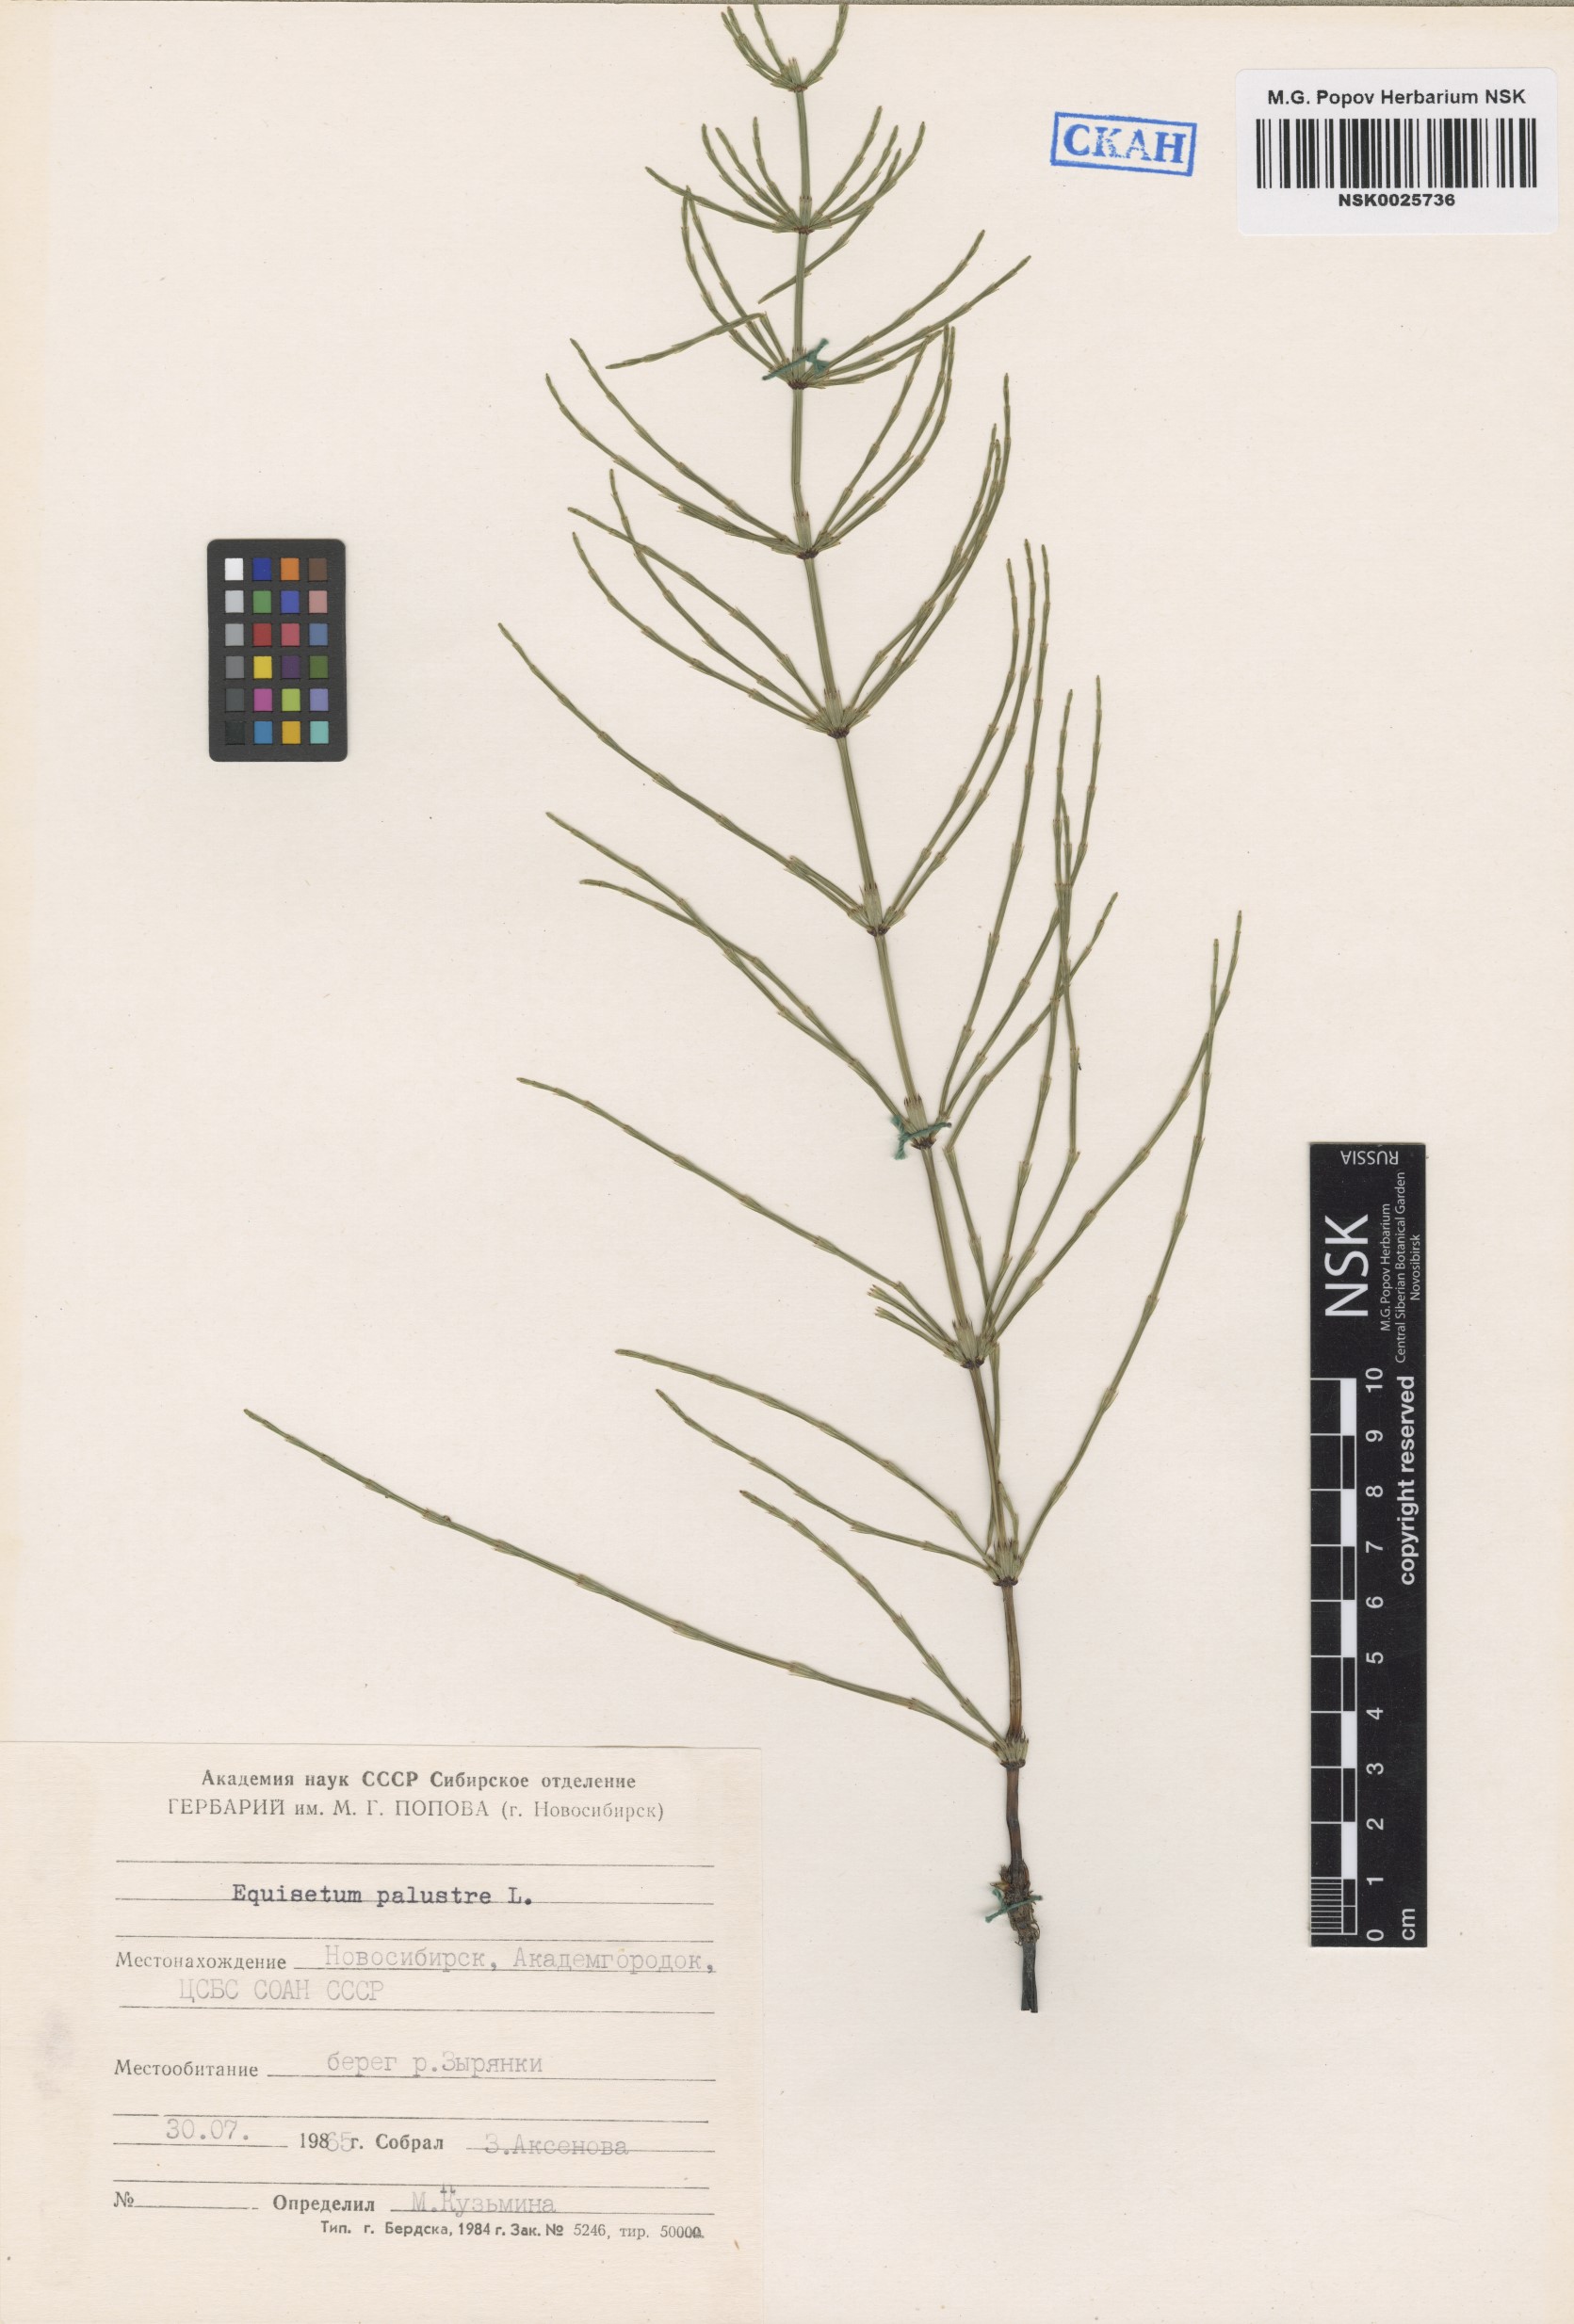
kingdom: Plantae
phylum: Tracheophyta
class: Polypodiopsida
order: Equisetales
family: Equisetaceae
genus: Equisetum
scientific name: Equisetum palustre
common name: Marsh horsetail
